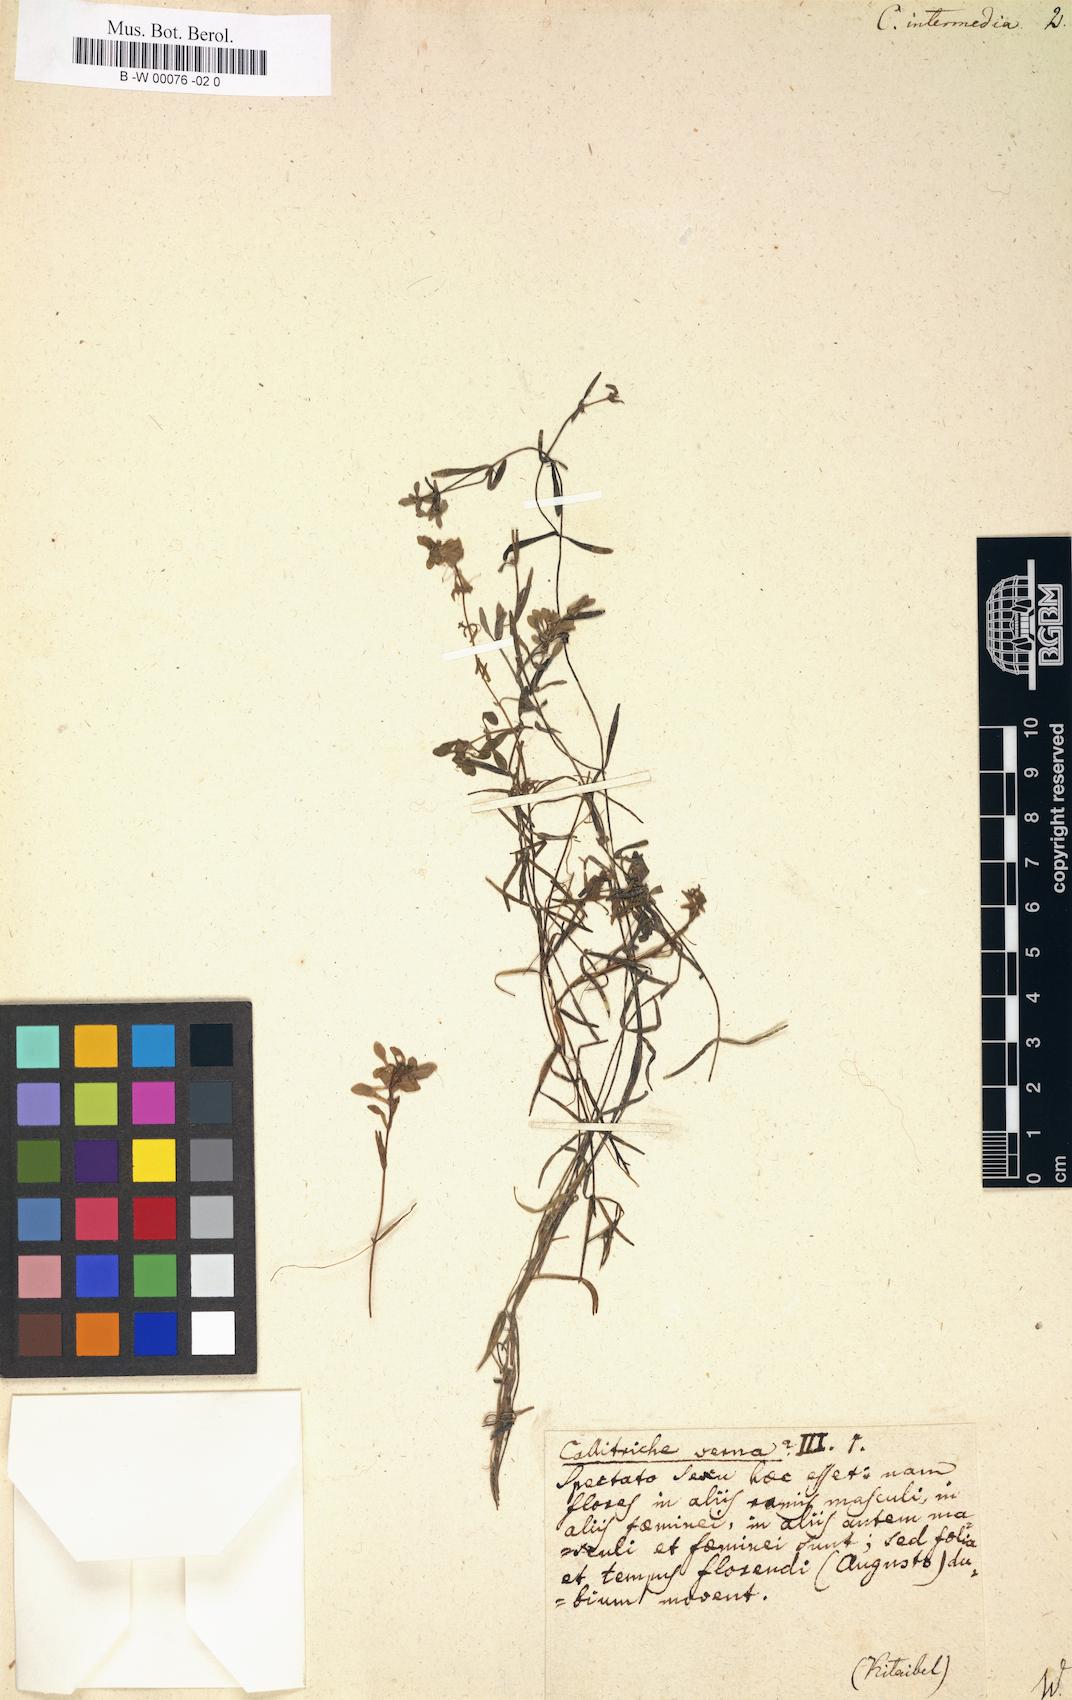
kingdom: Plantae
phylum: Tracheophyta
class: Magnoliopsida
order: Lamiales
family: Plantaginaceae
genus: Callitriche
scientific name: Callitriche hamulata
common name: Intermediate water-starwort
